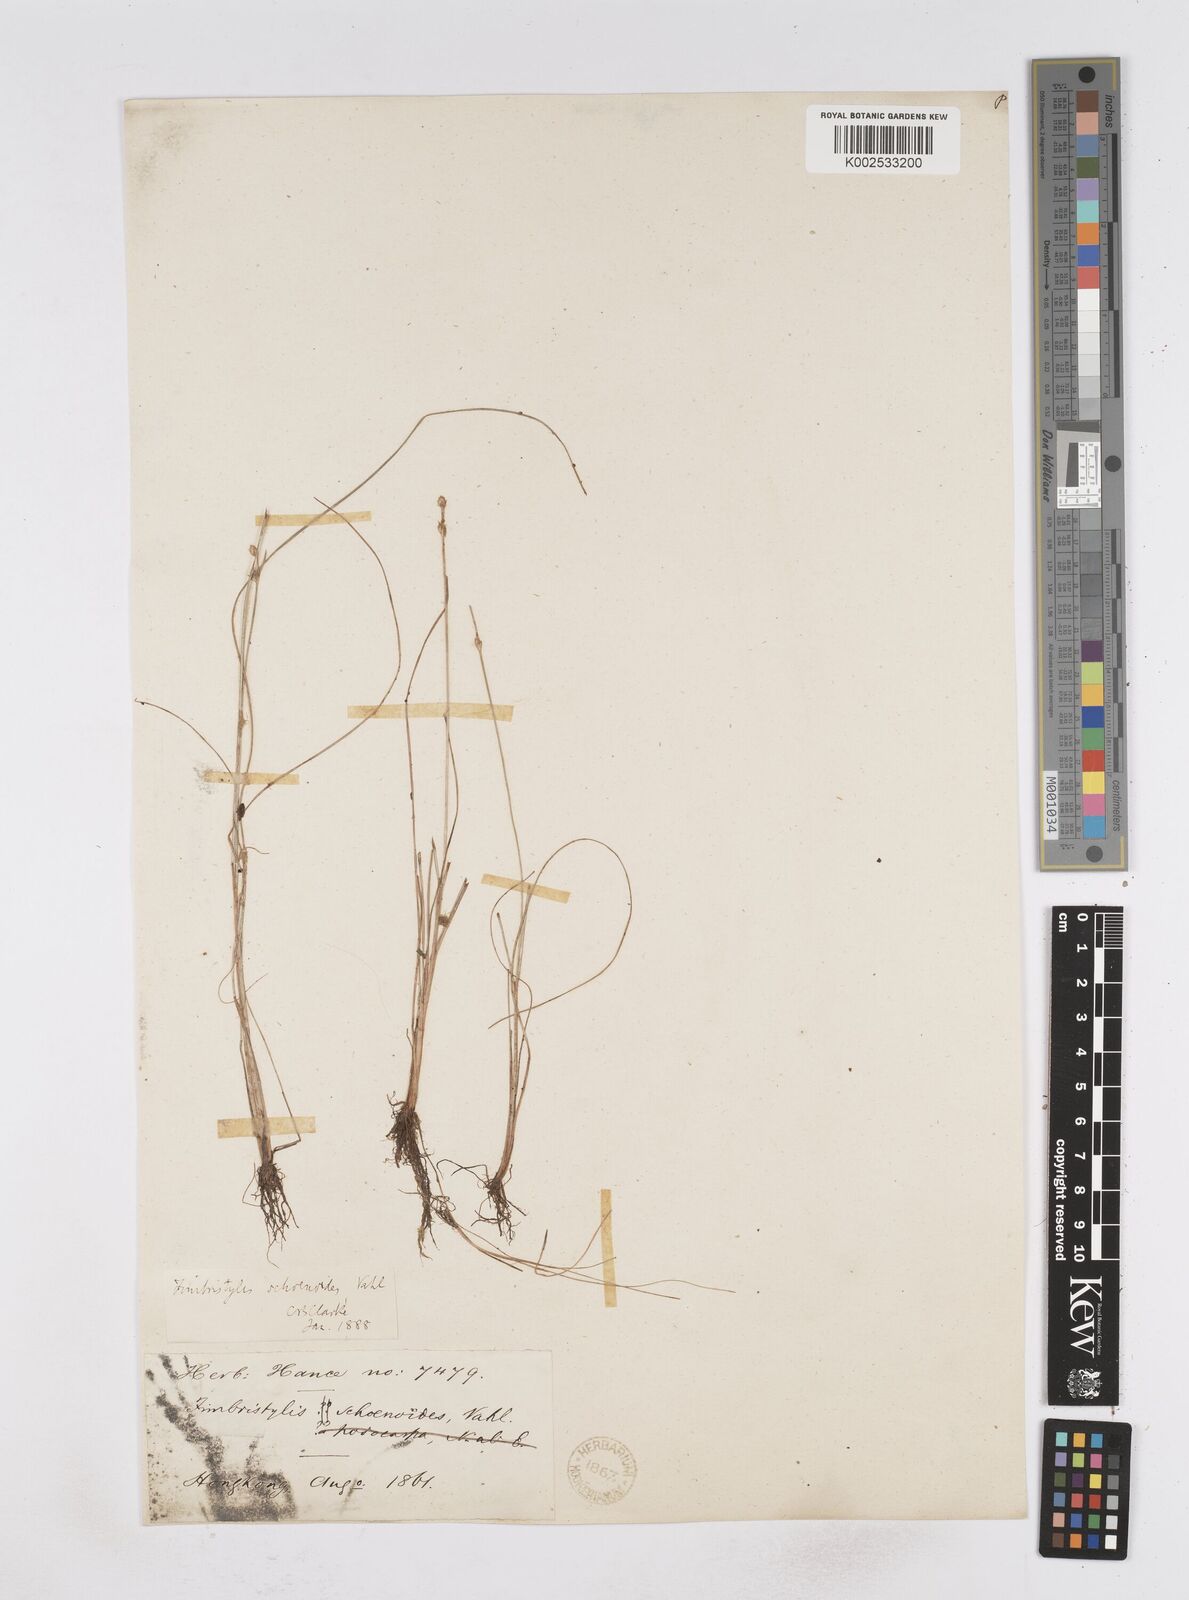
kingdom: Plantae
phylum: Tracheophyta
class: Liliopsida
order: Poales
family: Cyperaceae
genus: Fimbristylis
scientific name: Fimbristylis schoenoides
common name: Ditch fimbry
